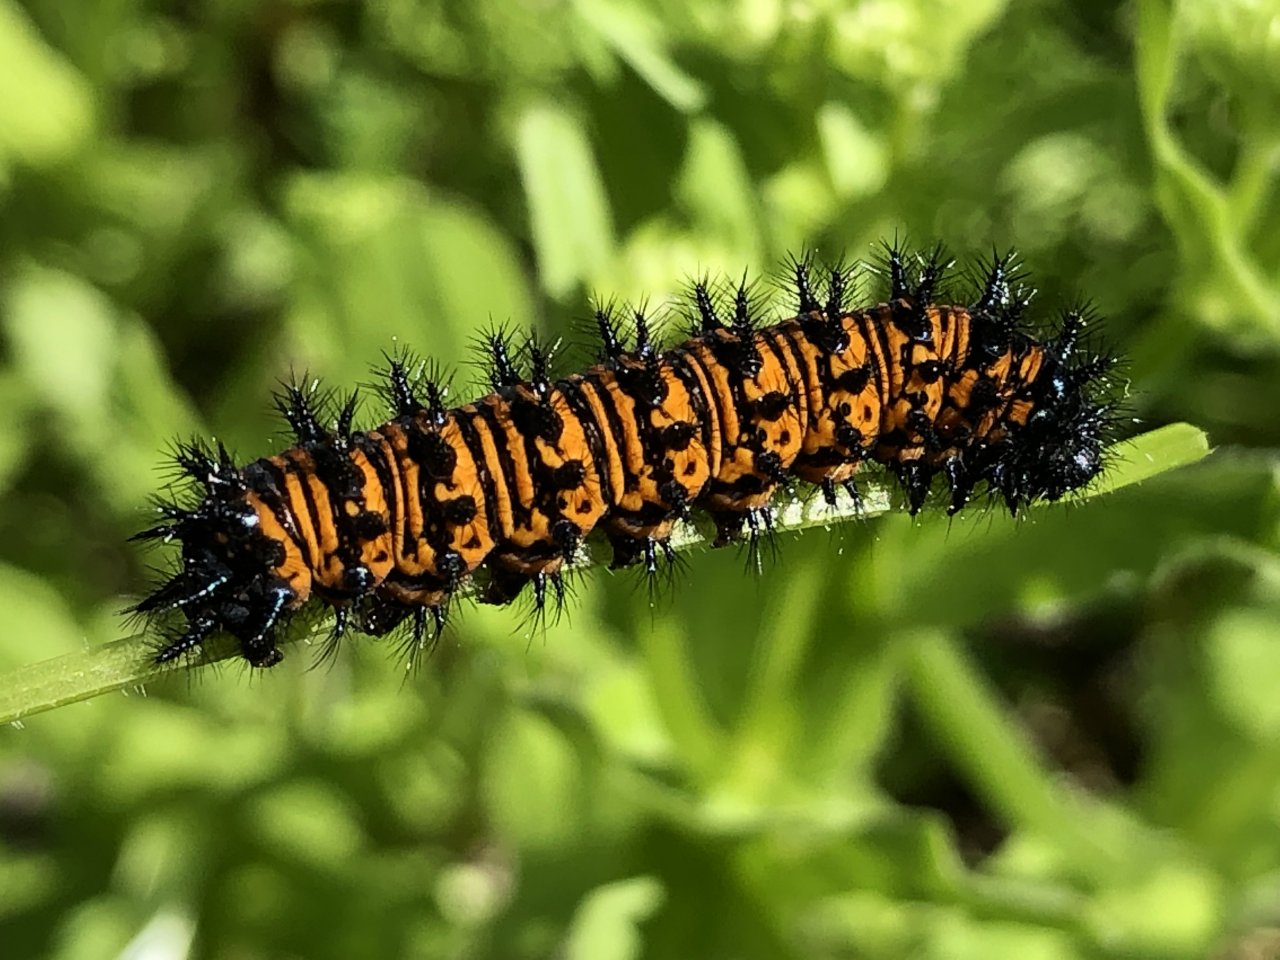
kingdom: Animalia
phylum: Arthropoda
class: Insecta
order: Lepidoptera
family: Nymphalidae
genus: Euphydryas
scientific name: Euphydryas phaeton
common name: Baltimore Checkerspot
